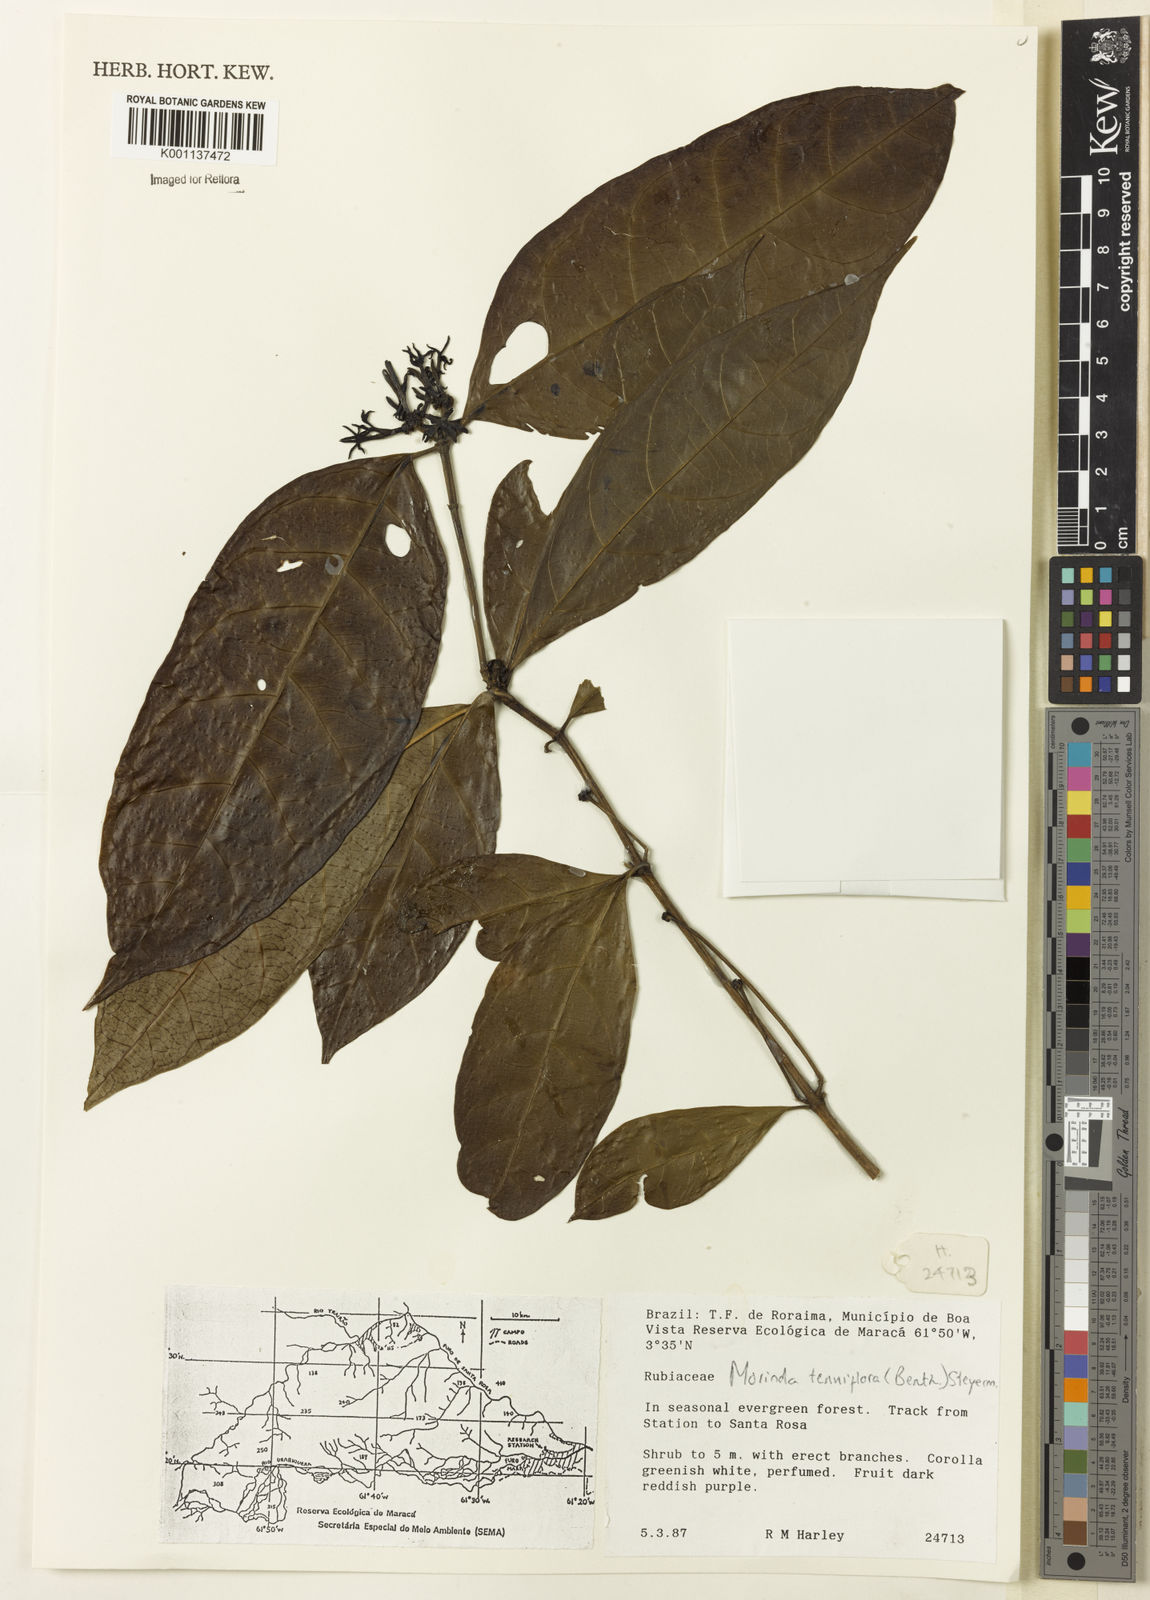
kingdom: Plantae
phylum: Tracheophyta
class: Magnoliopsida
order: Gentianales
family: Rubiaceae
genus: Appunia
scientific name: Appunia tenuiflora
